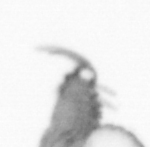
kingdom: Animalia
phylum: Annelida
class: Polychaeta
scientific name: Polychaeta
